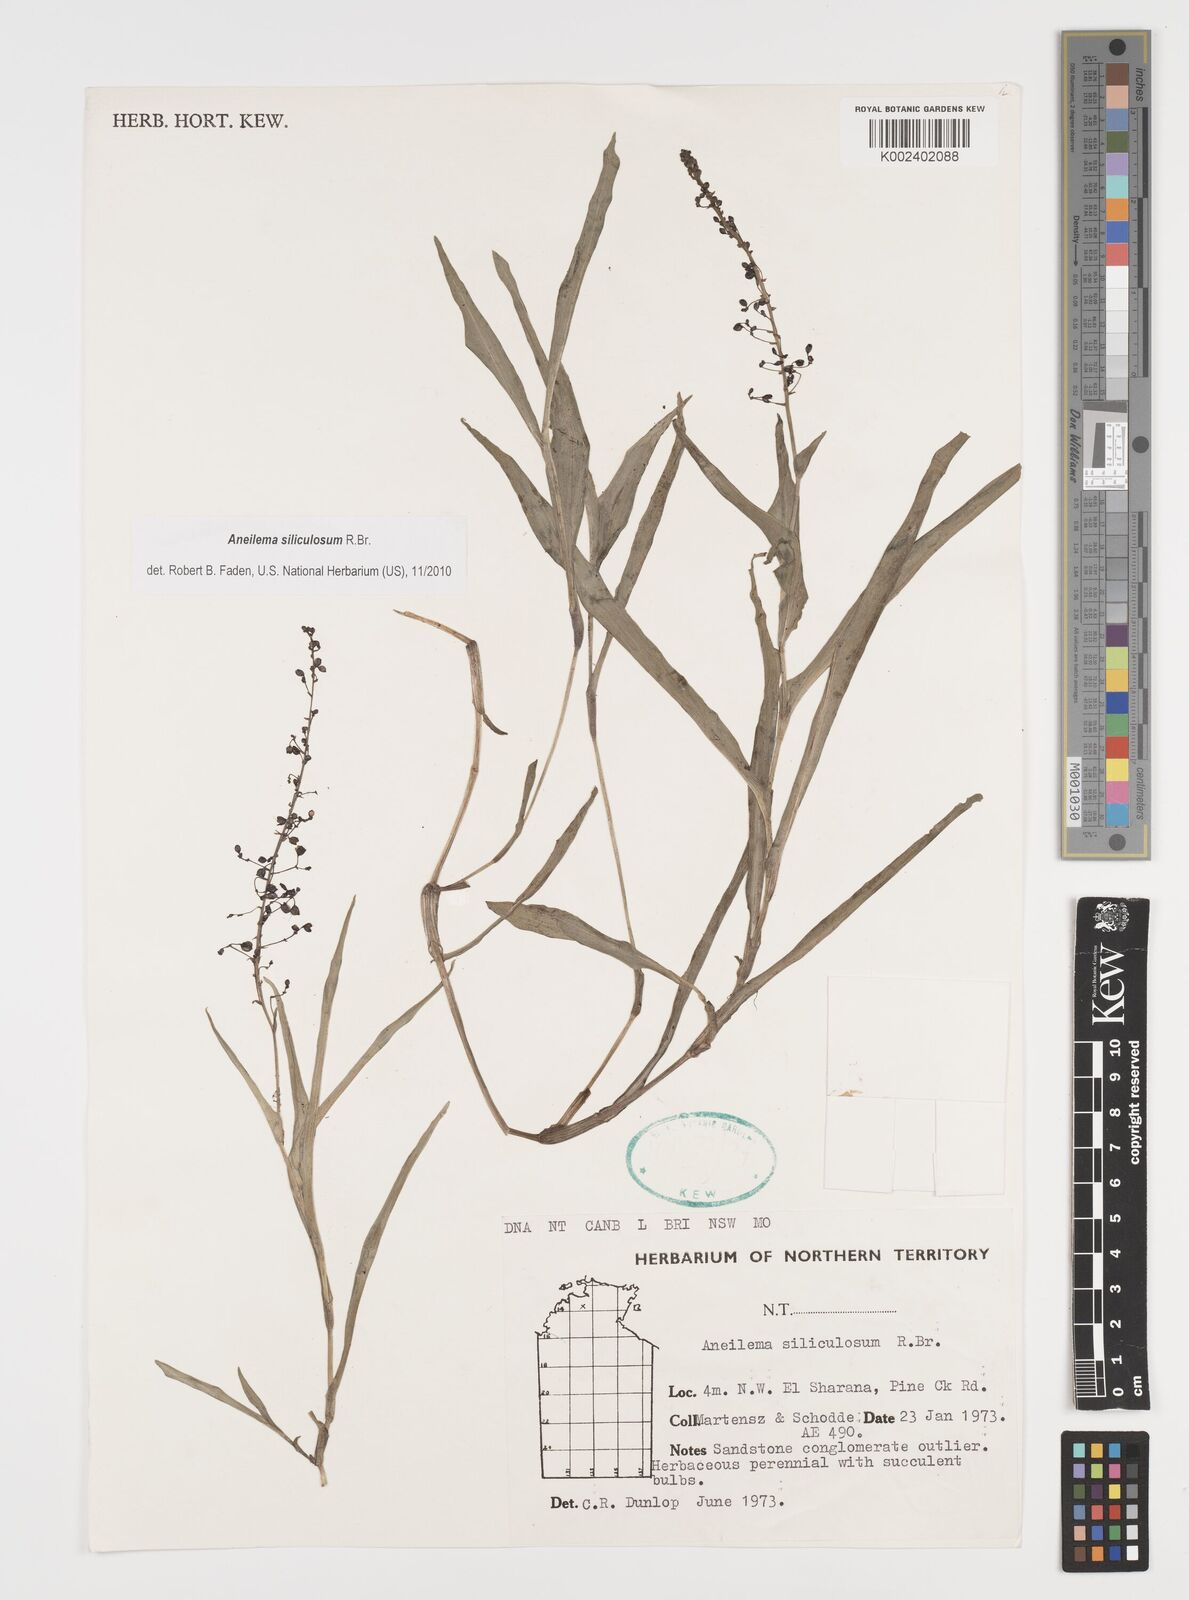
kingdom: Plantae
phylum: Tracheophyta
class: Liliopsida
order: Commelinales
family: Commelinaceae
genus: Aneilema
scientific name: Aneilema siliculosum
